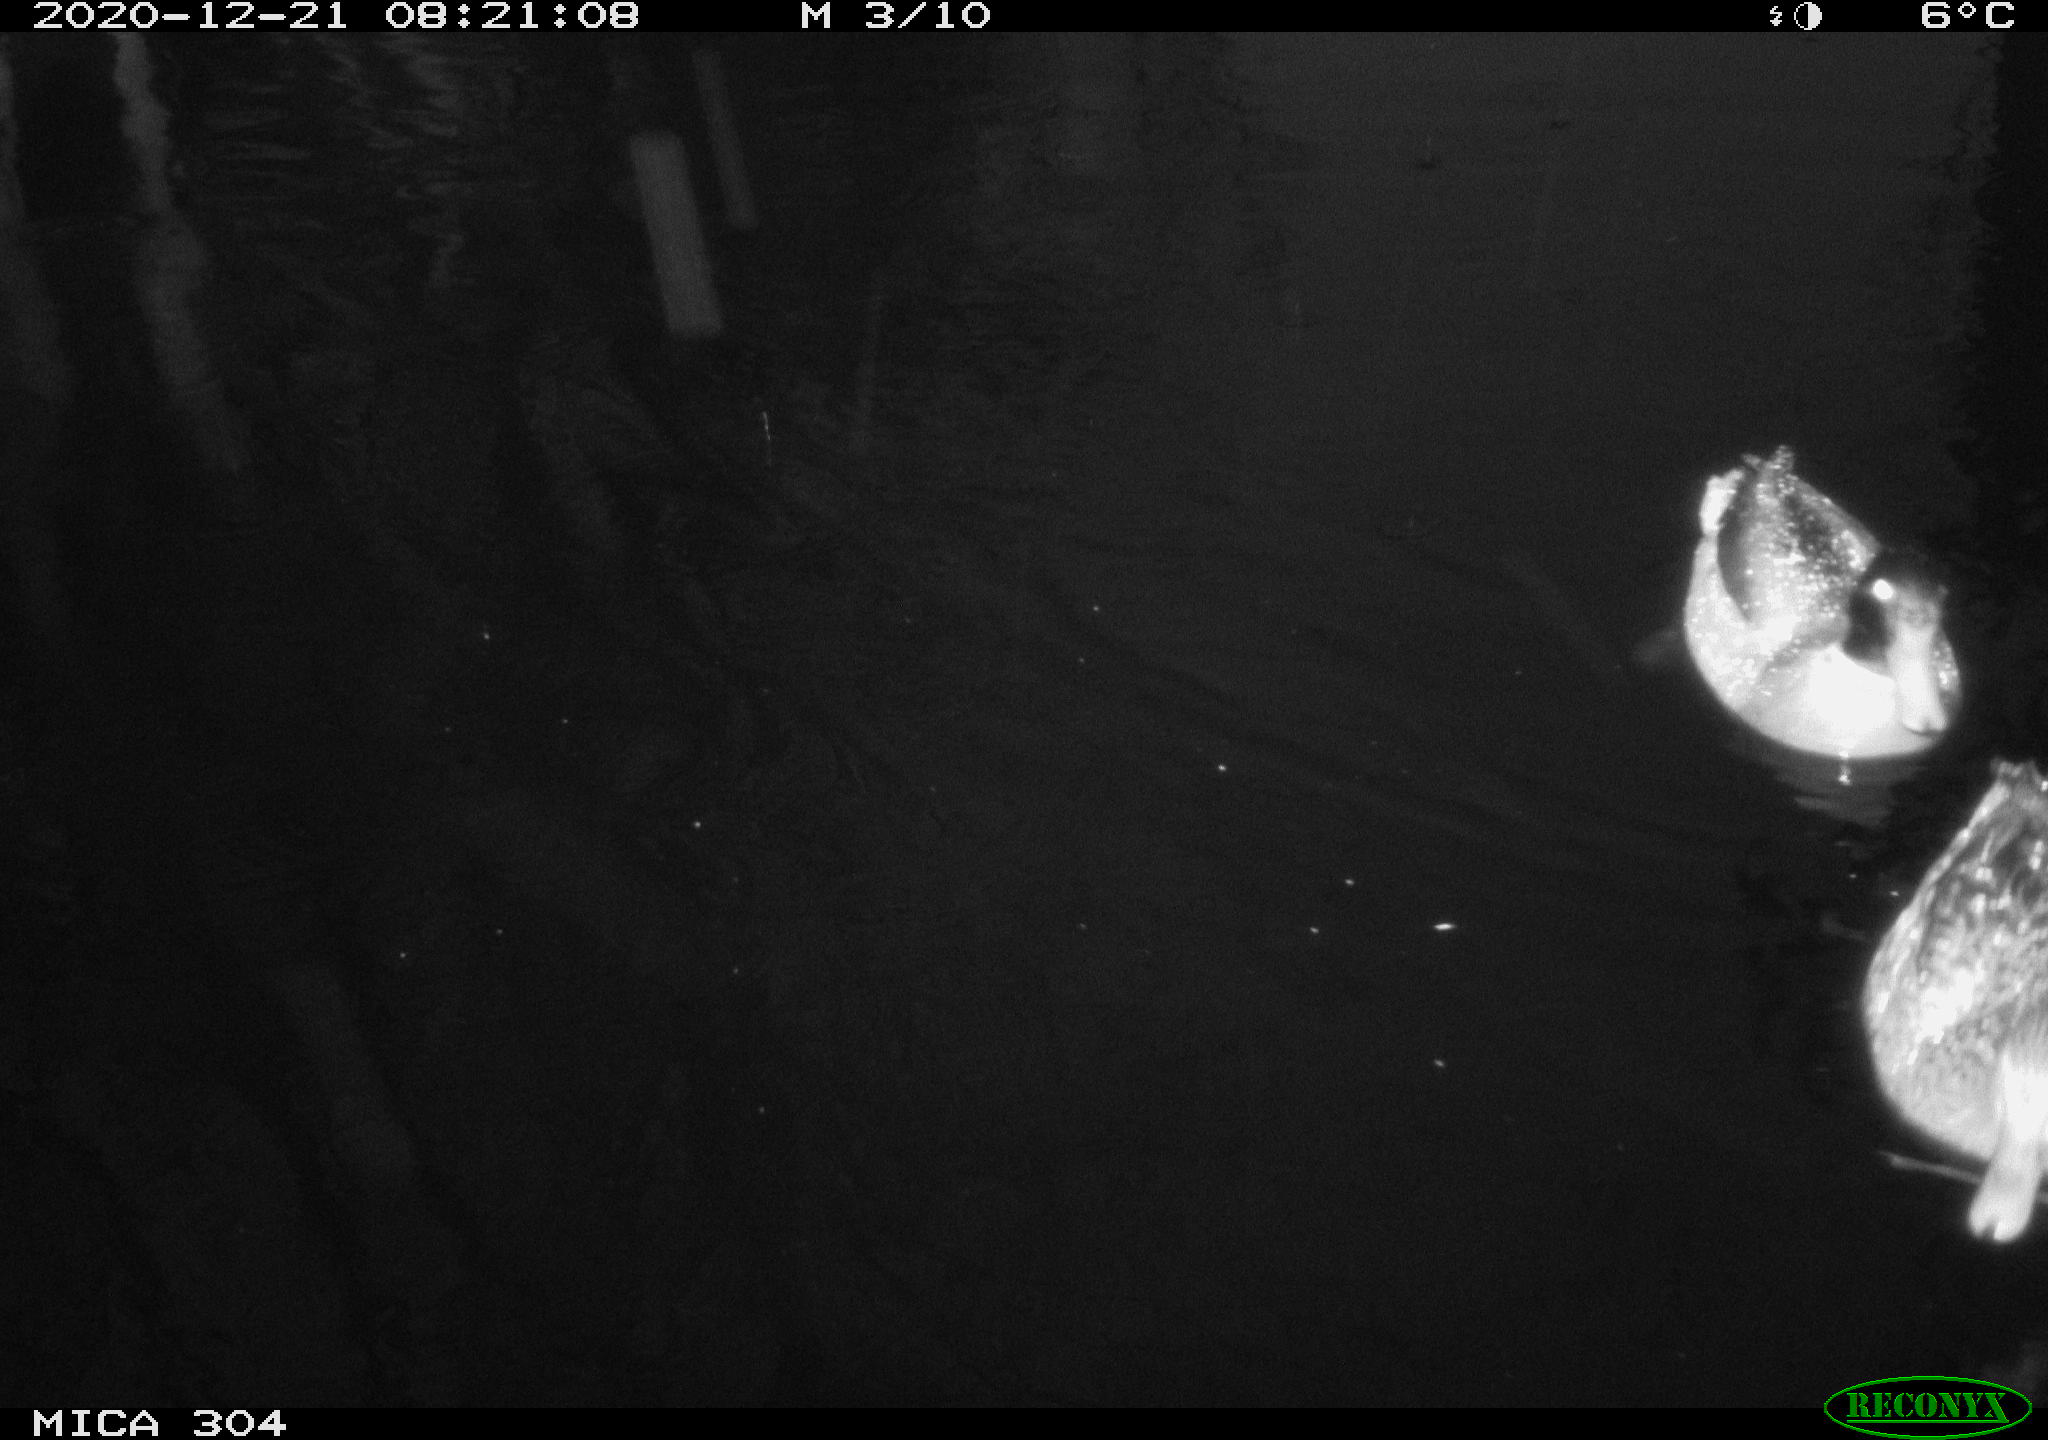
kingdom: Animalia
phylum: Chordata
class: Aves
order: Anseriformes
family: Anatidae
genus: Anas
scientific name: Anas platyrhynchos
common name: Mallard
